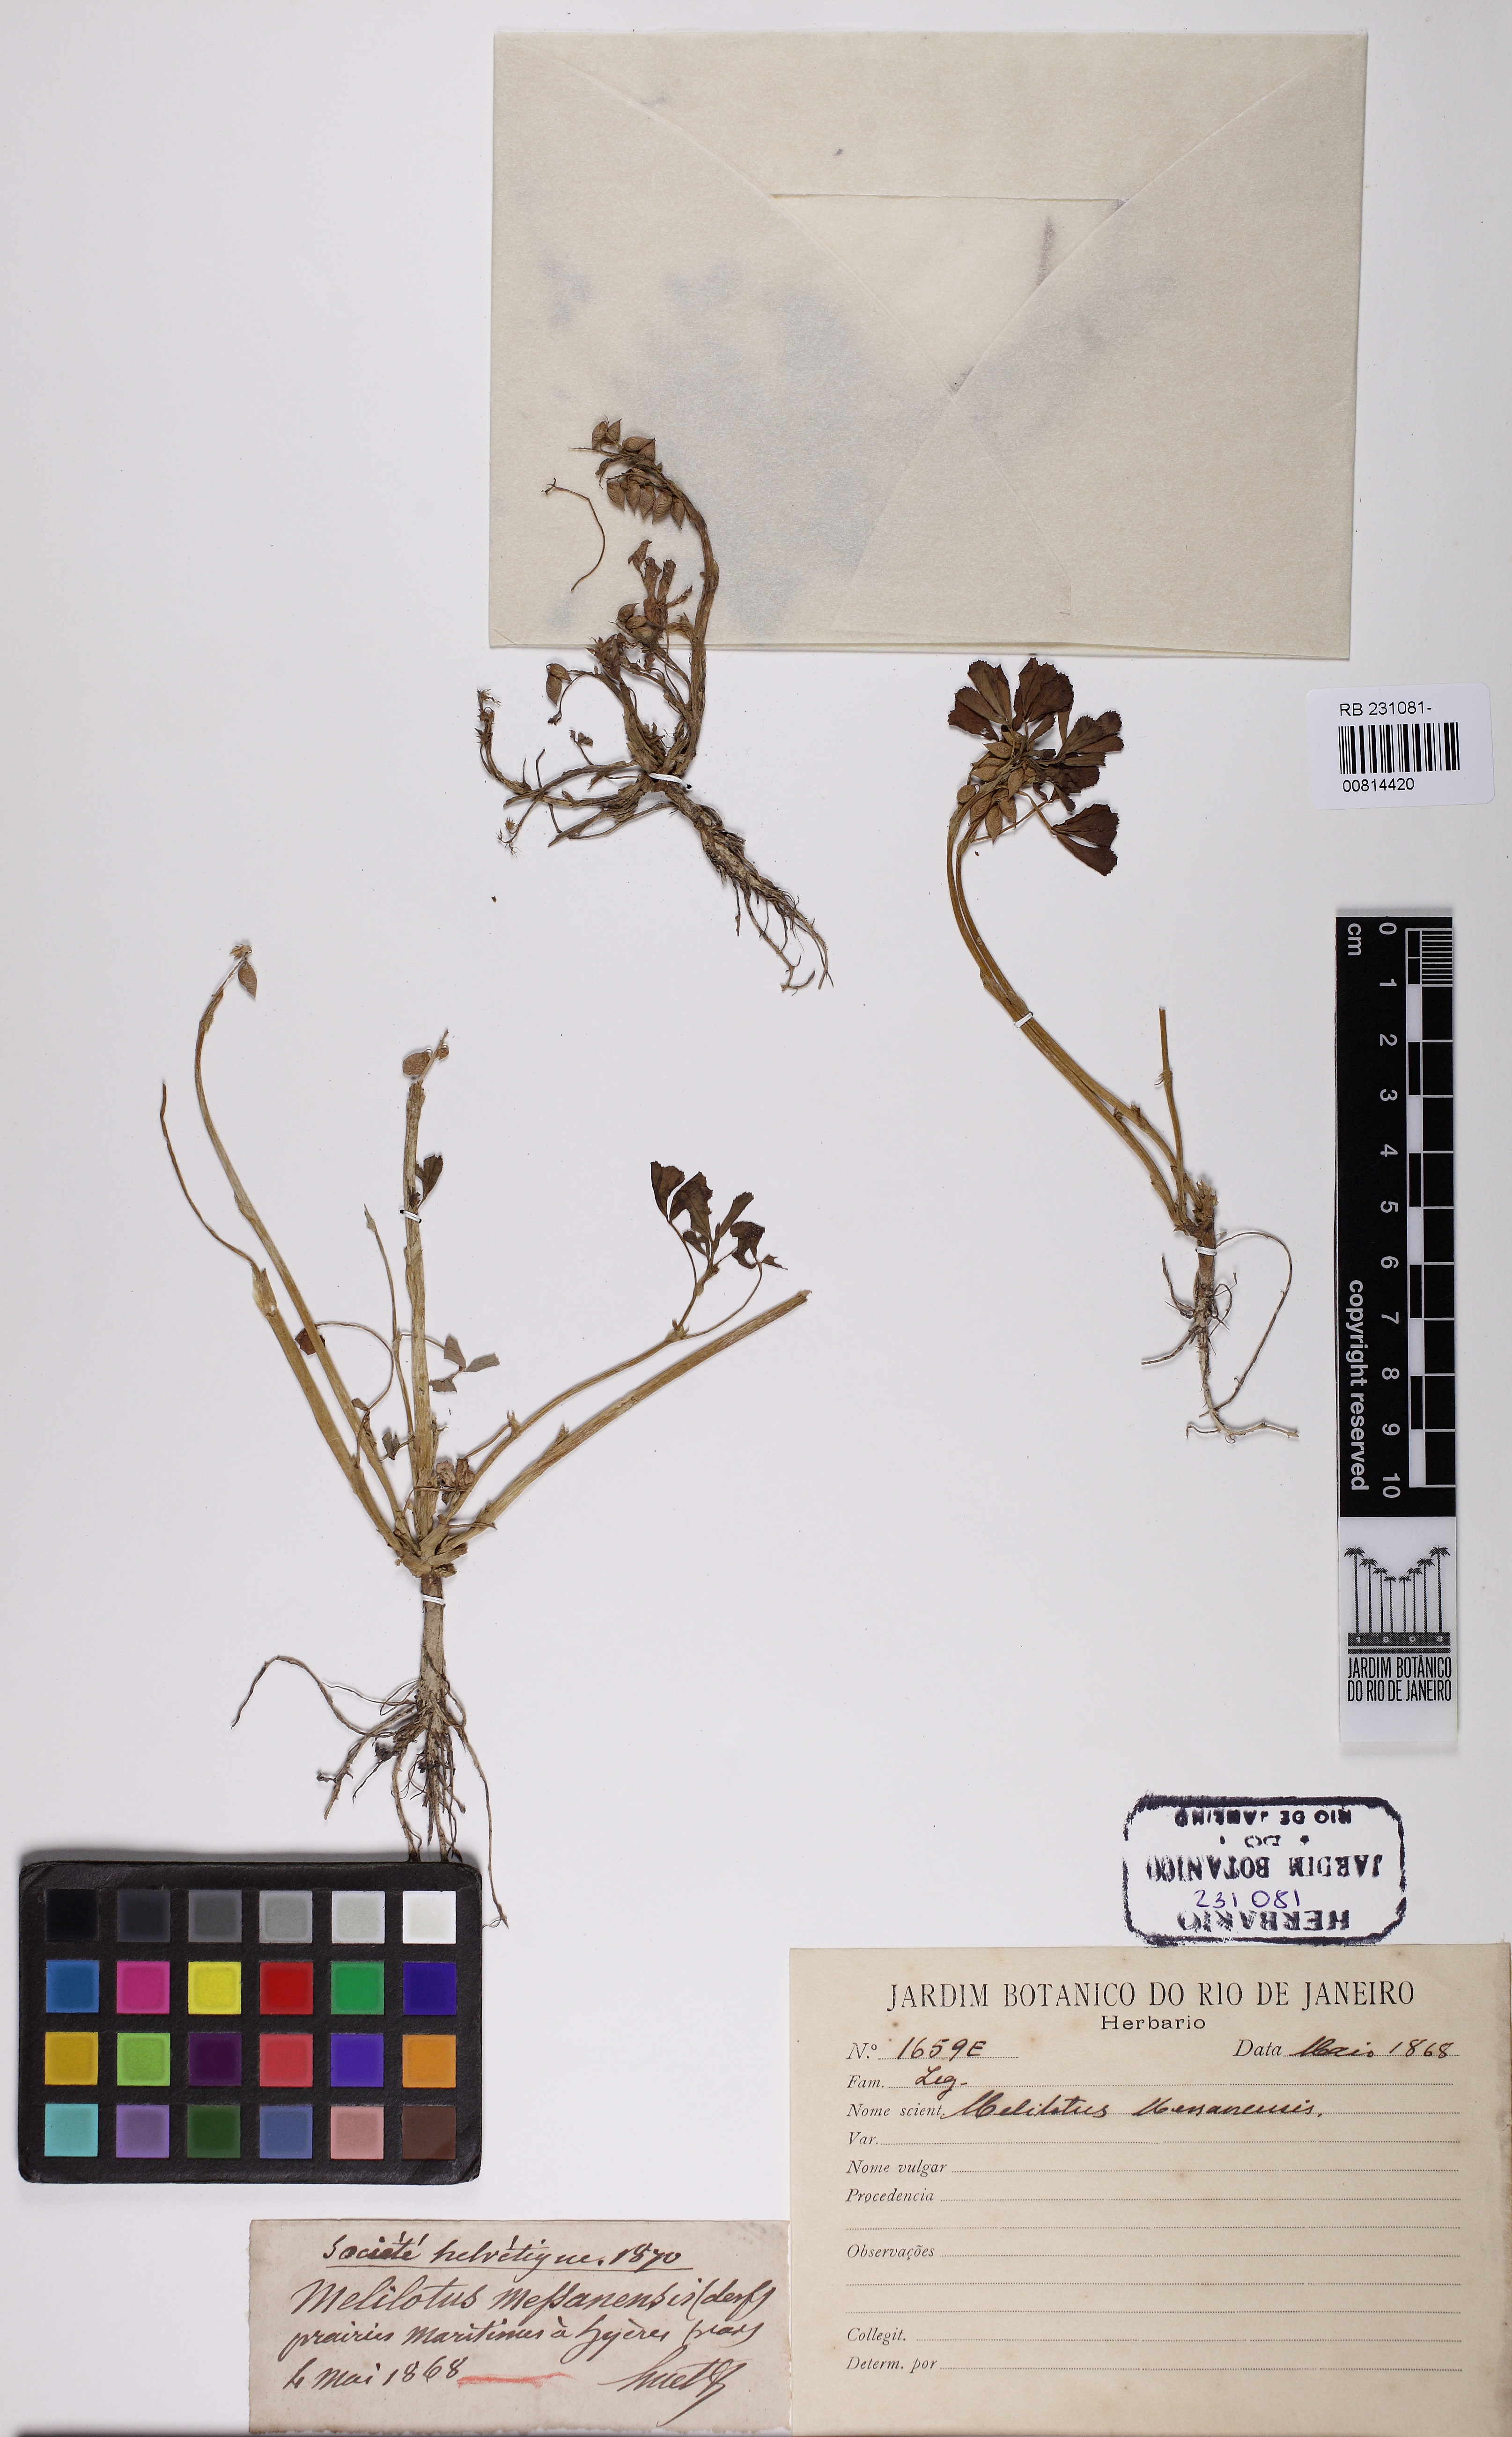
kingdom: Plantae
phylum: Tracheophyta
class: Magnoliopsida
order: Fabales
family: Fabaceae
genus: Melilotus
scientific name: Melilotus siculus
